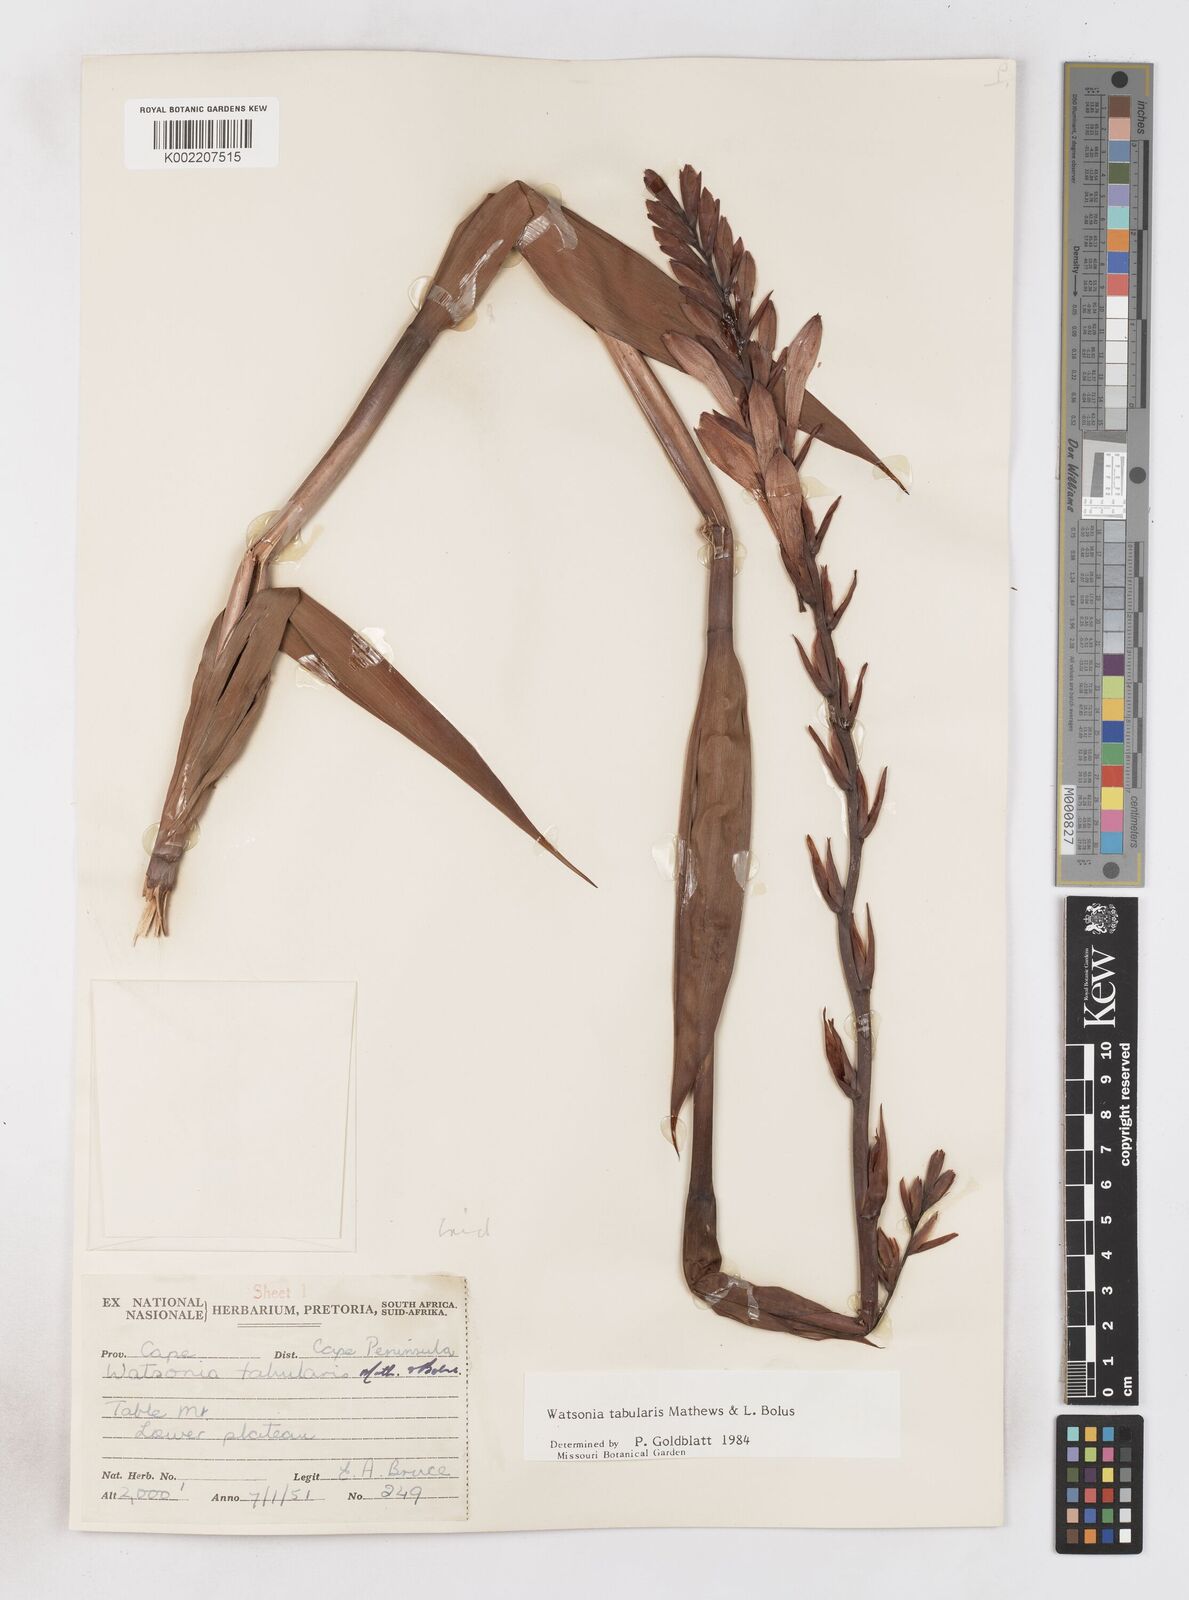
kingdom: Plantae
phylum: Tracheophyta
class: Liliopsida
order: Asparagales
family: Iridaceae
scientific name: Iridaceae
